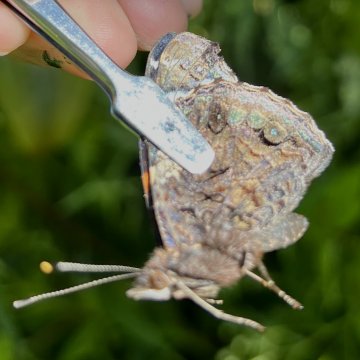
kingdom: Animalia
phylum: Arthropoda
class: Insecta
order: Lepidoptera
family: Nymphalidae
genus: Vanessa
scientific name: Vanessa atalanta
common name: Red Admiral
